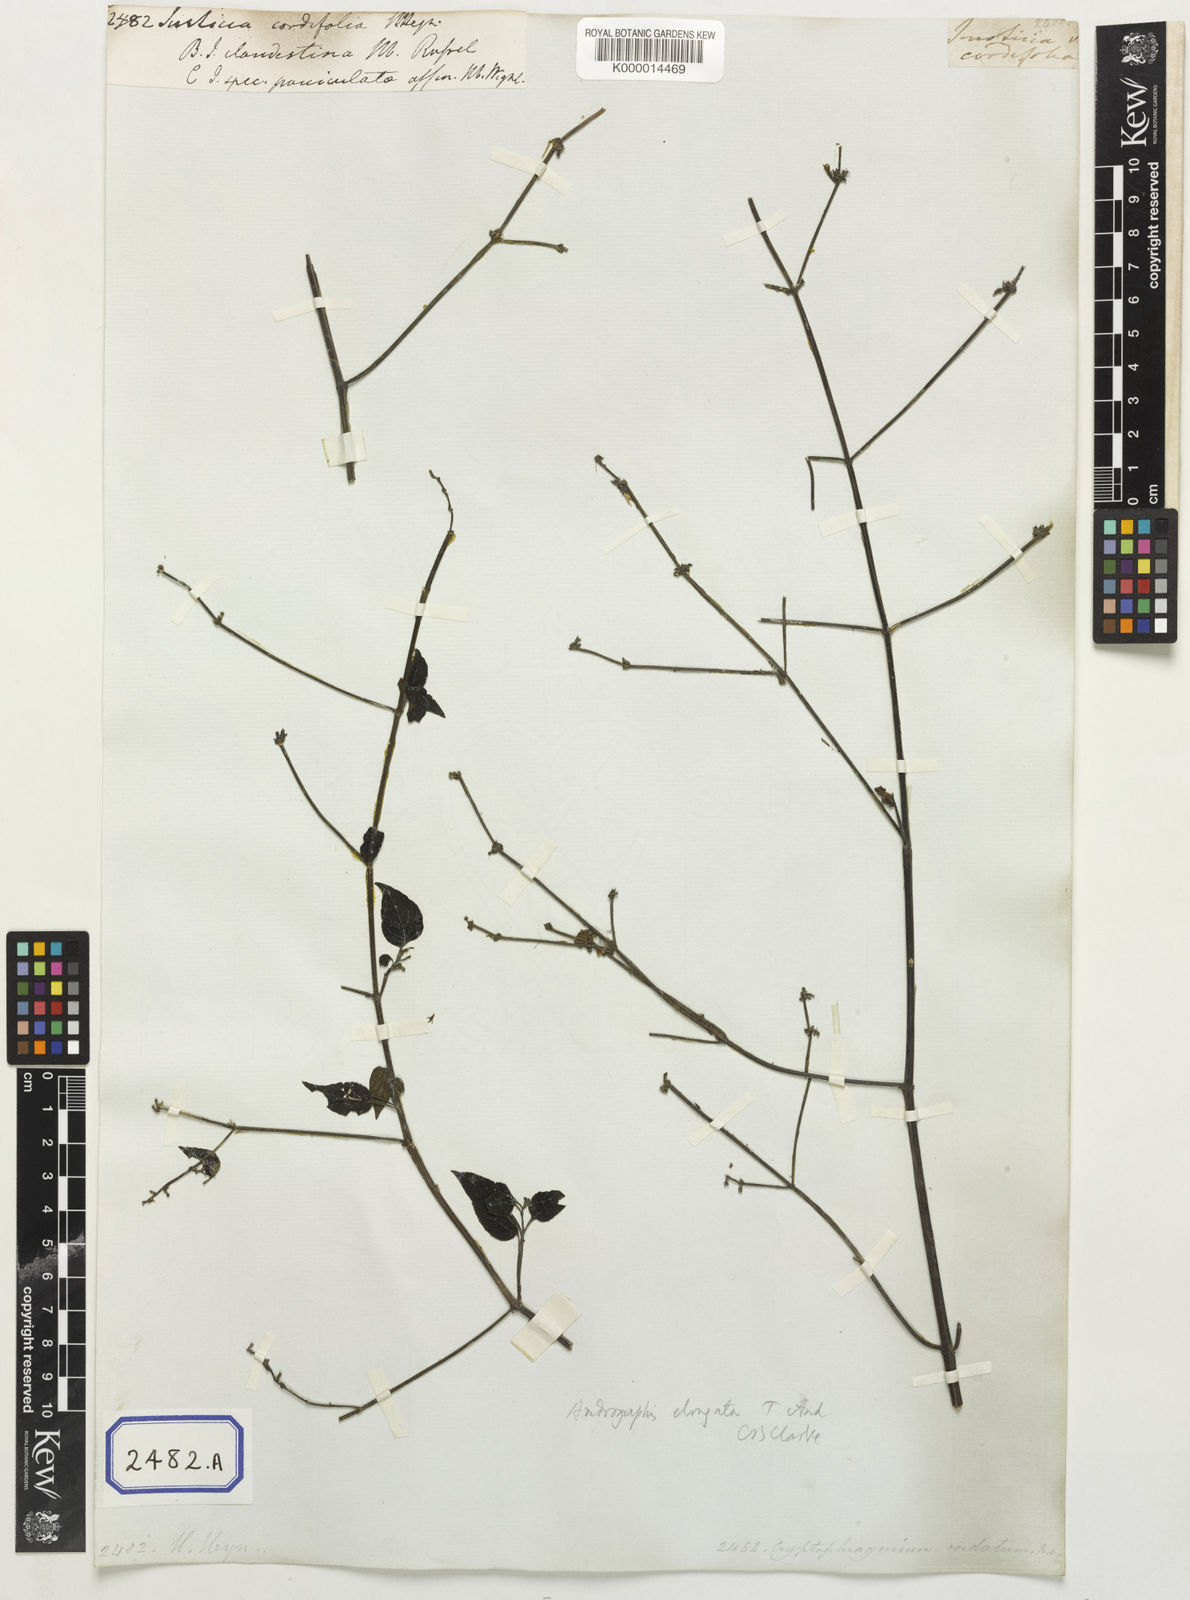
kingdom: Plantae
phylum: Tracheophyta
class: Magnoliopsida
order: Lamiales
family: Acanthaceae
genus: Andrographis
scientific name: Andrographis elongata
